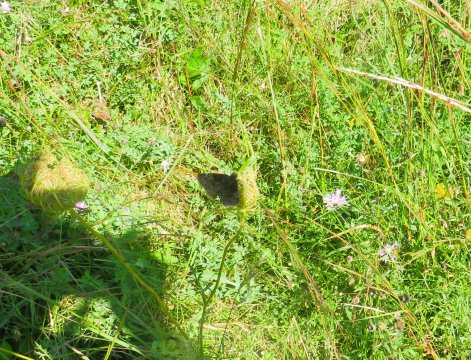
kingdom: Animalia
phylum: Arthropoda
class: Insecta
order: Lepidoptera
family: Hesperiidae
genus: Gesta
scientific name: Gesta
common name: Wild Indigo Duskywing
